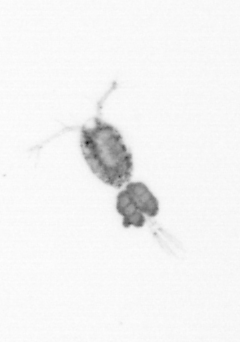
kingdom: Animalia
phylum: Arthropoda
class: Copepoda
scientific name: Copepoda
